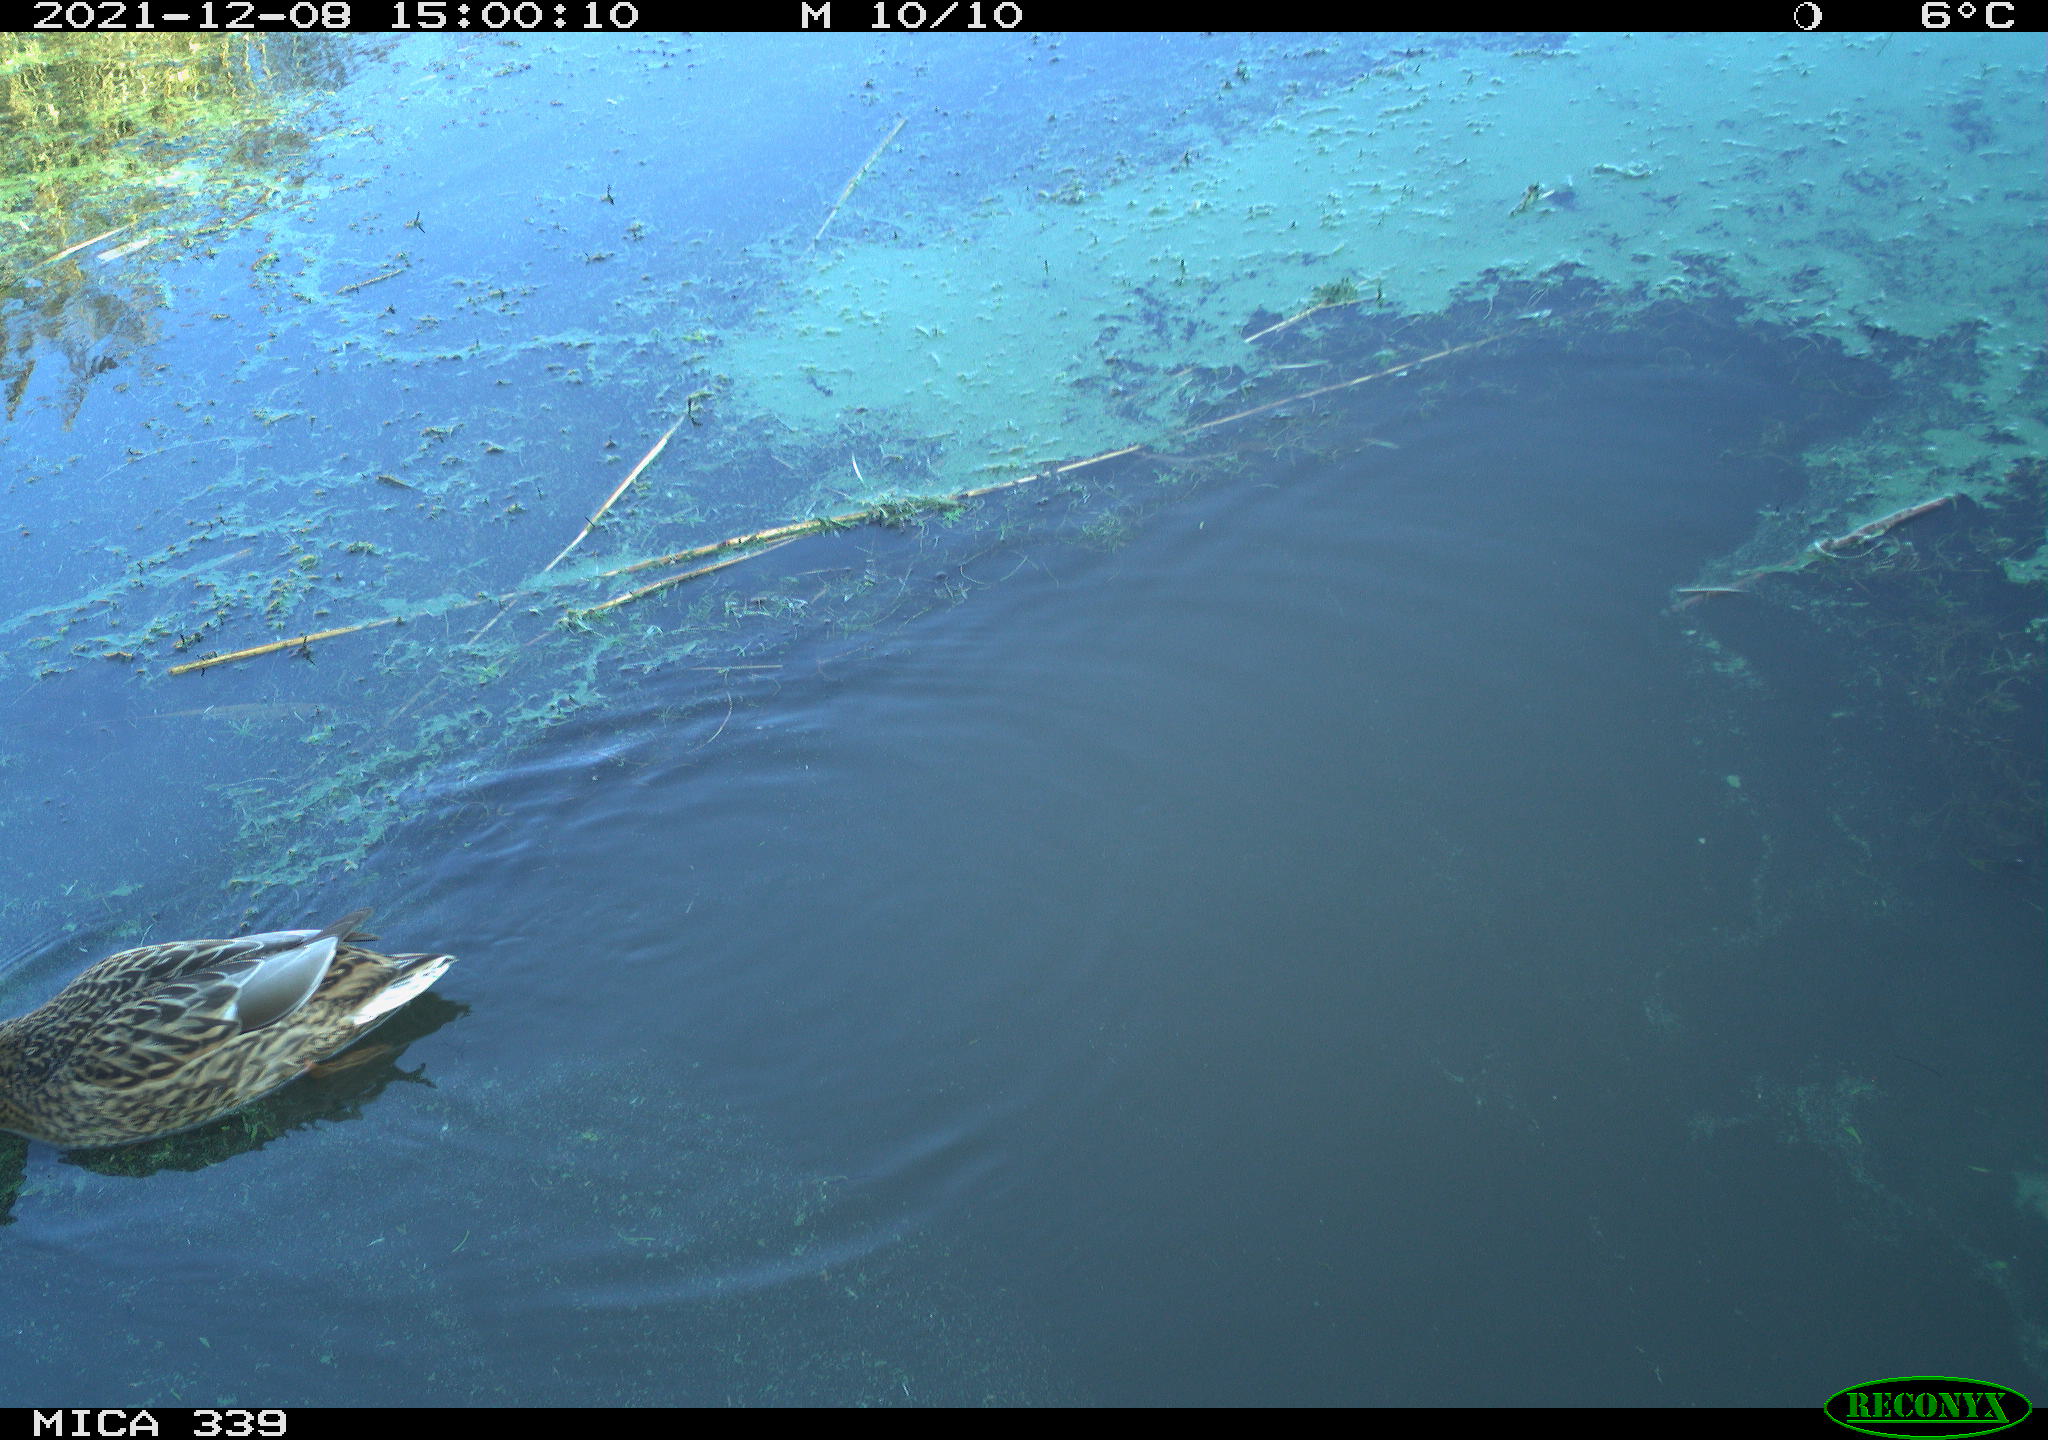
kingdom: Animalia
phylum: Chordata
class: Aves
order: Anseriformes
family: Anatidae
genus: Anas
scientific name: Anas platyrhynchos
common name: Mallard
